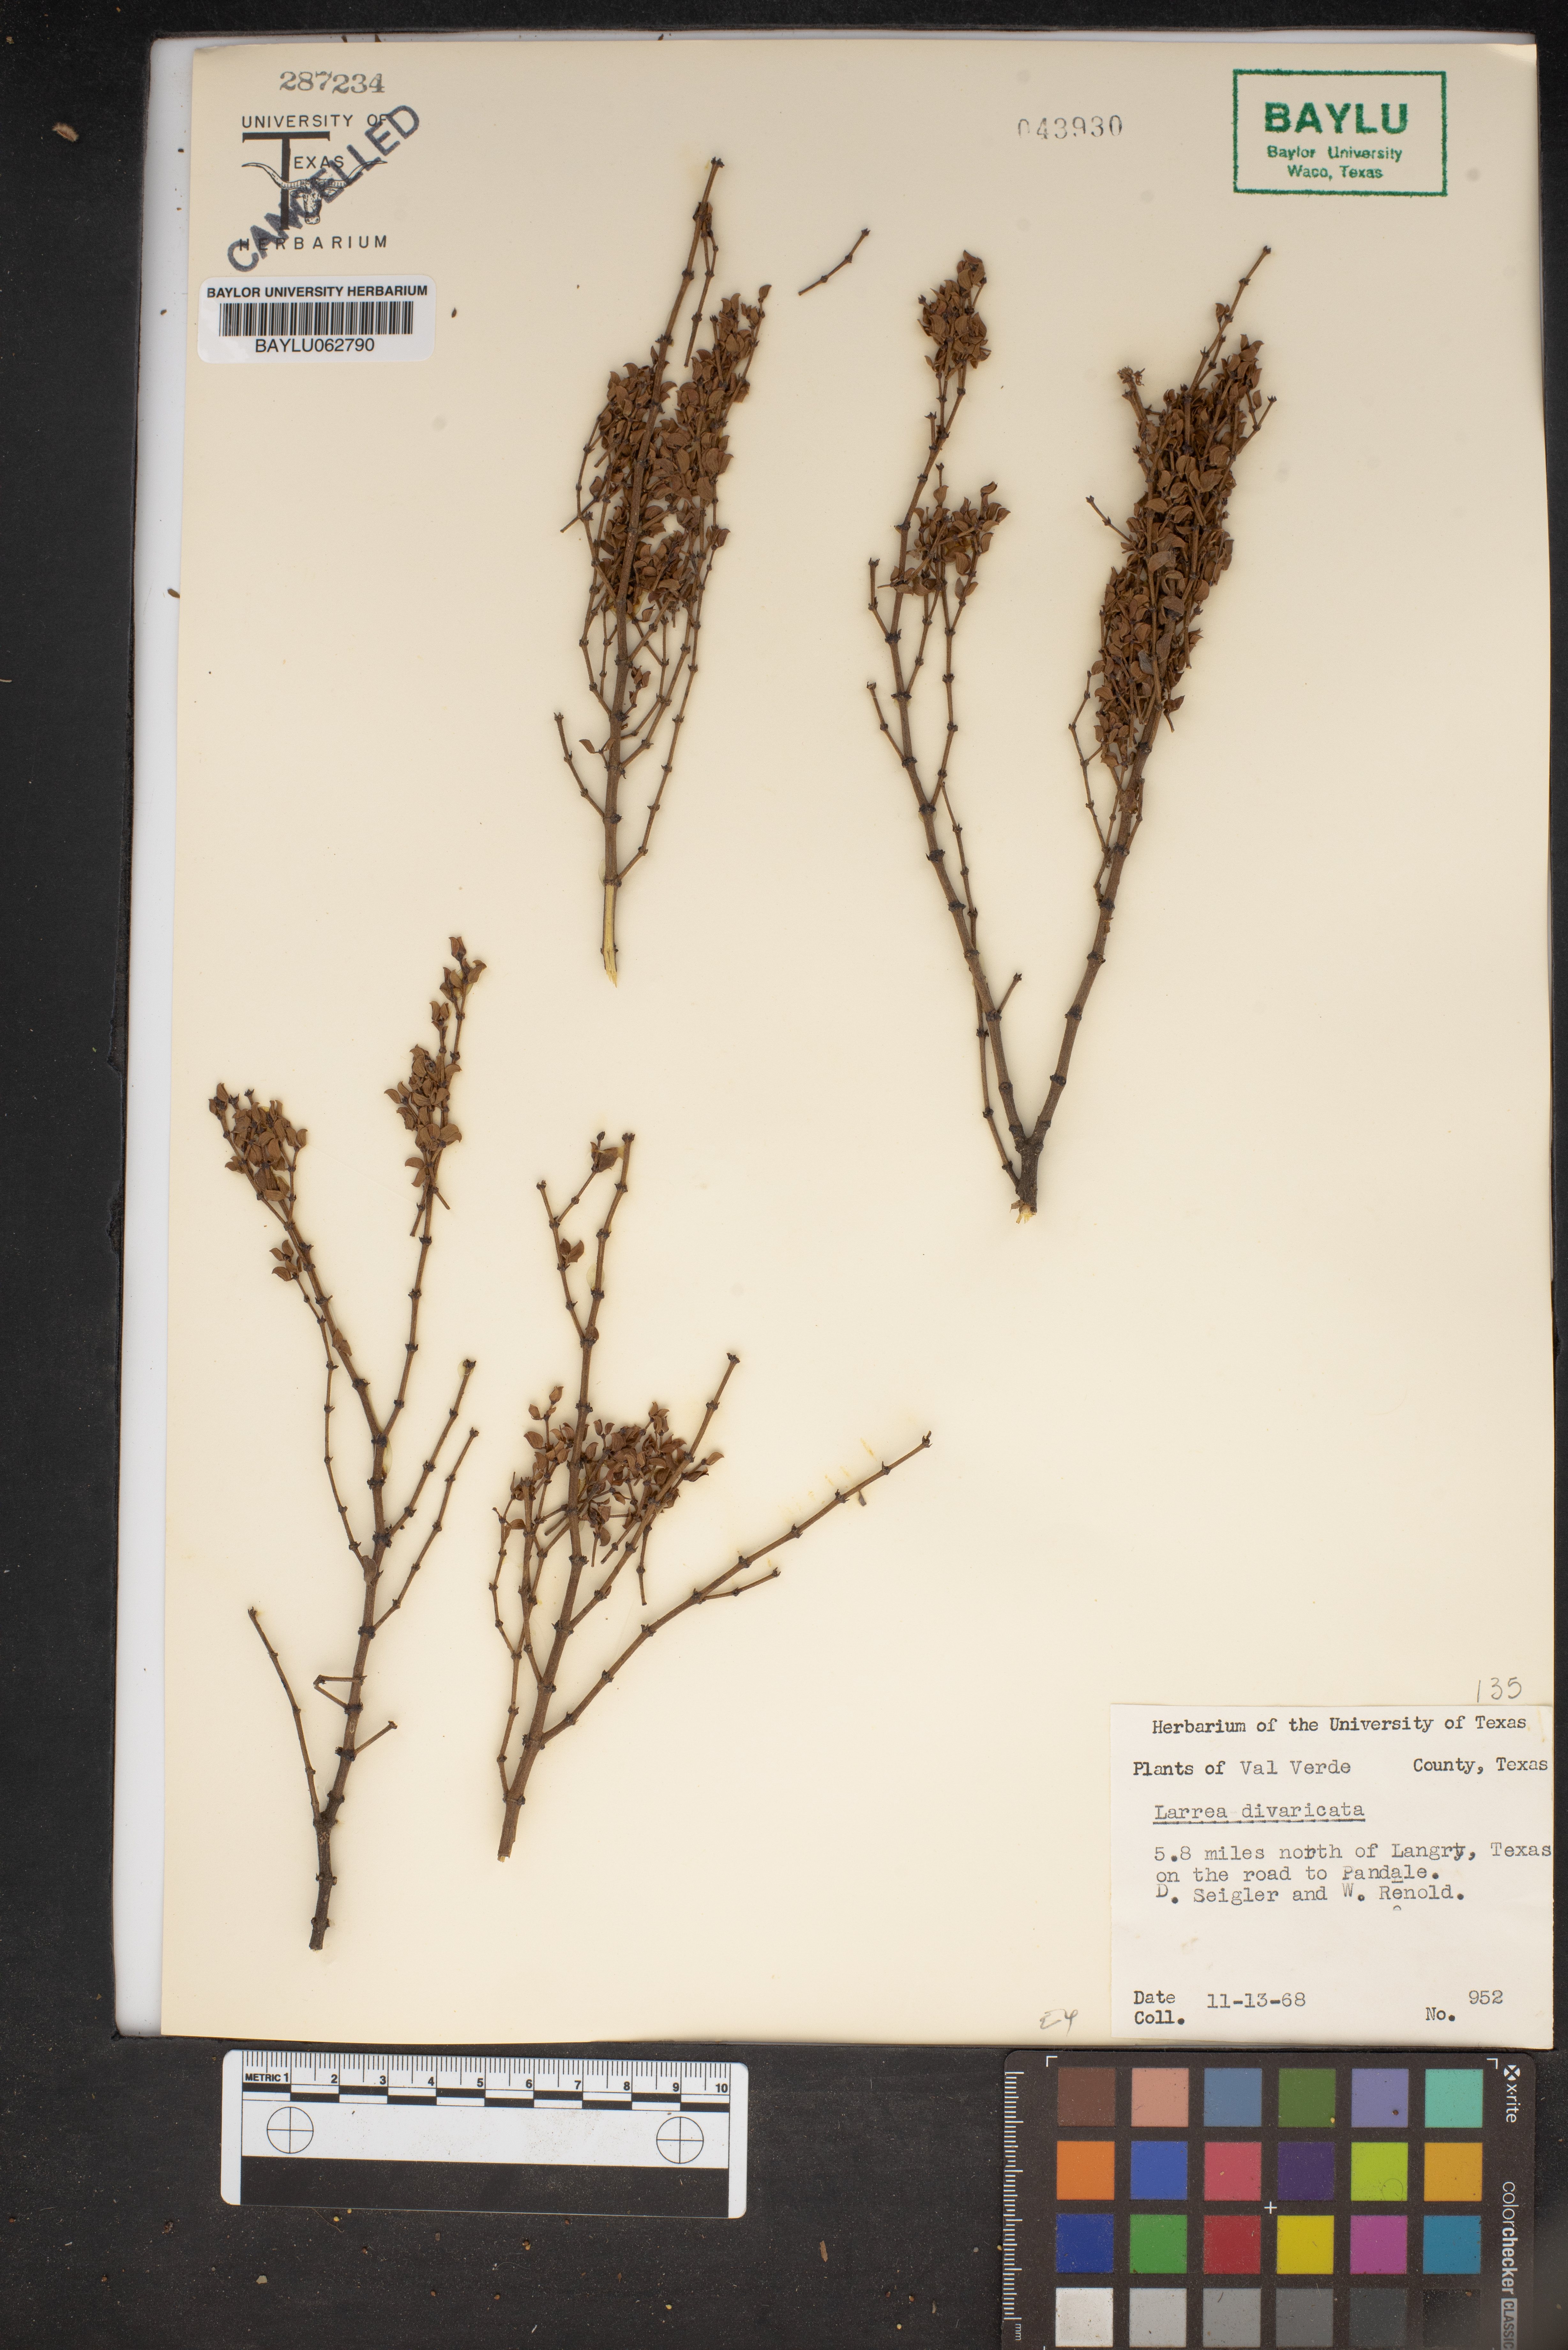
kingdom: Plantae
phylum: Tracheophyta
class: Magnoliopsida
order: Zygophyllales
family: Zygophyllaceae
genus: Larrea
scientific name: Larrea divaricata
